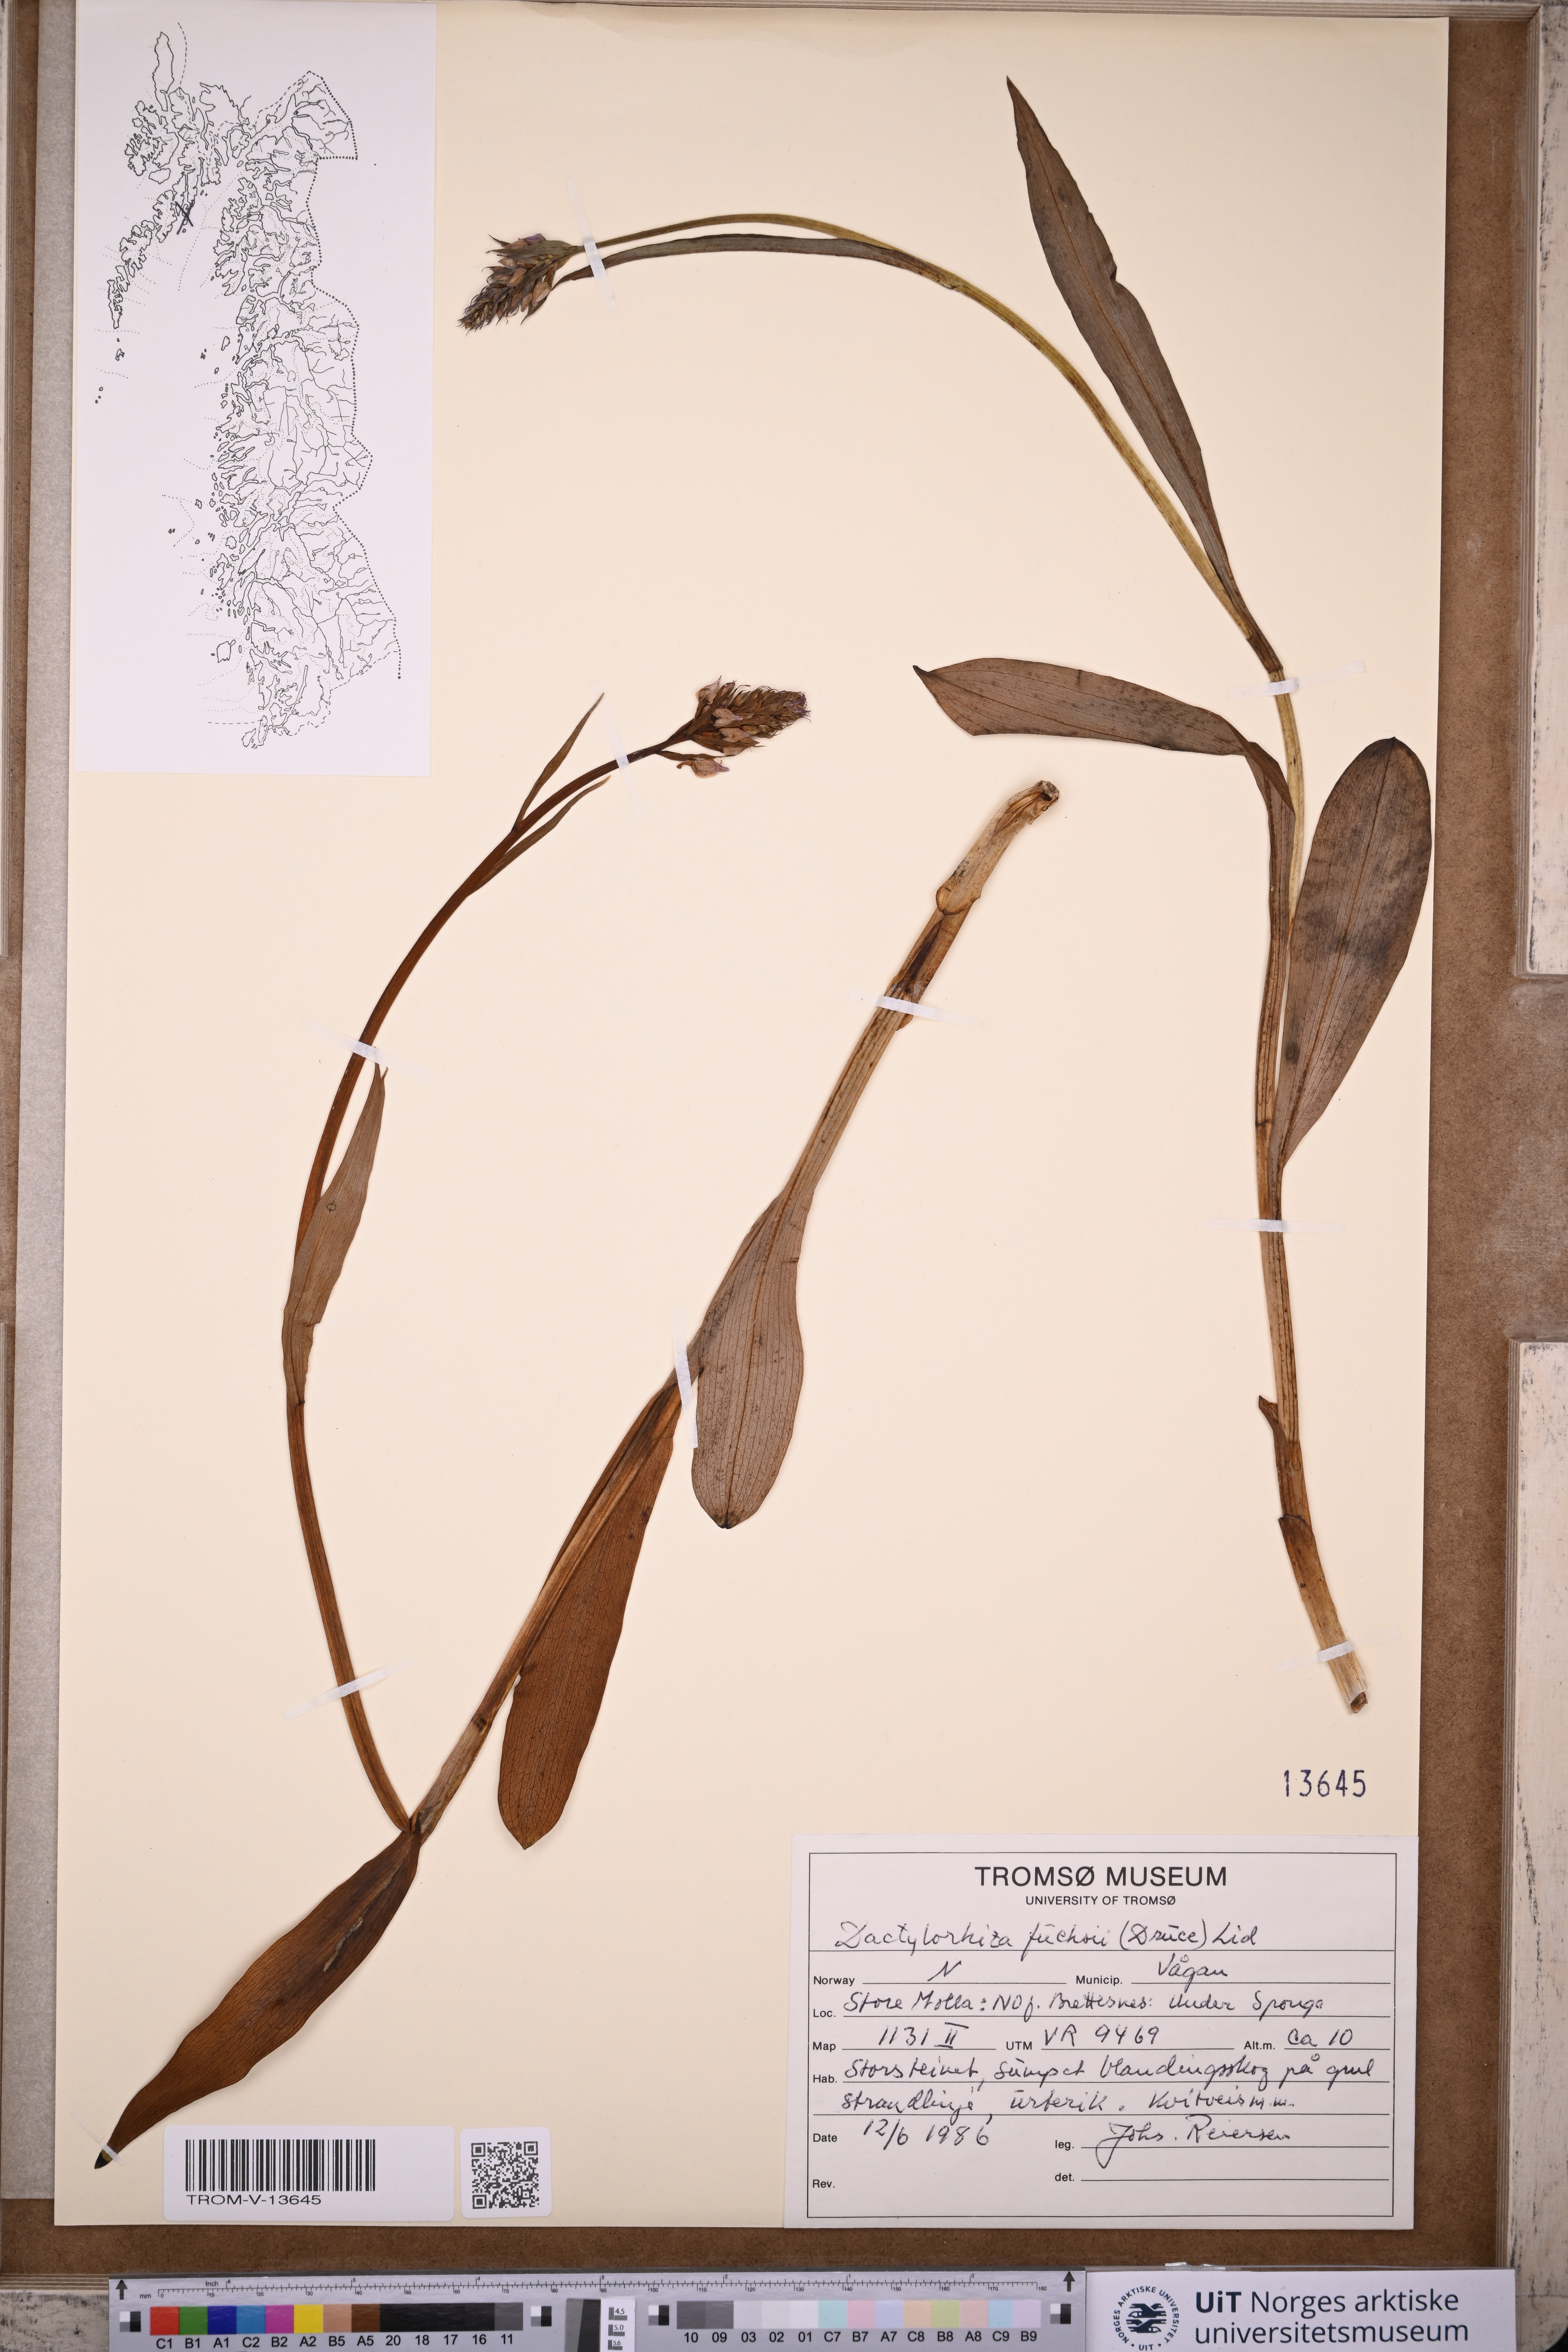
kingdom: Plantae
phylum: Tracheophyta
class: Liliopsida
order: Asparagales
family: Orchidaceae
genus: Dactylorhiza
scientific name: Dactylorhiza maculata
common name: Heath spotted-orchid
